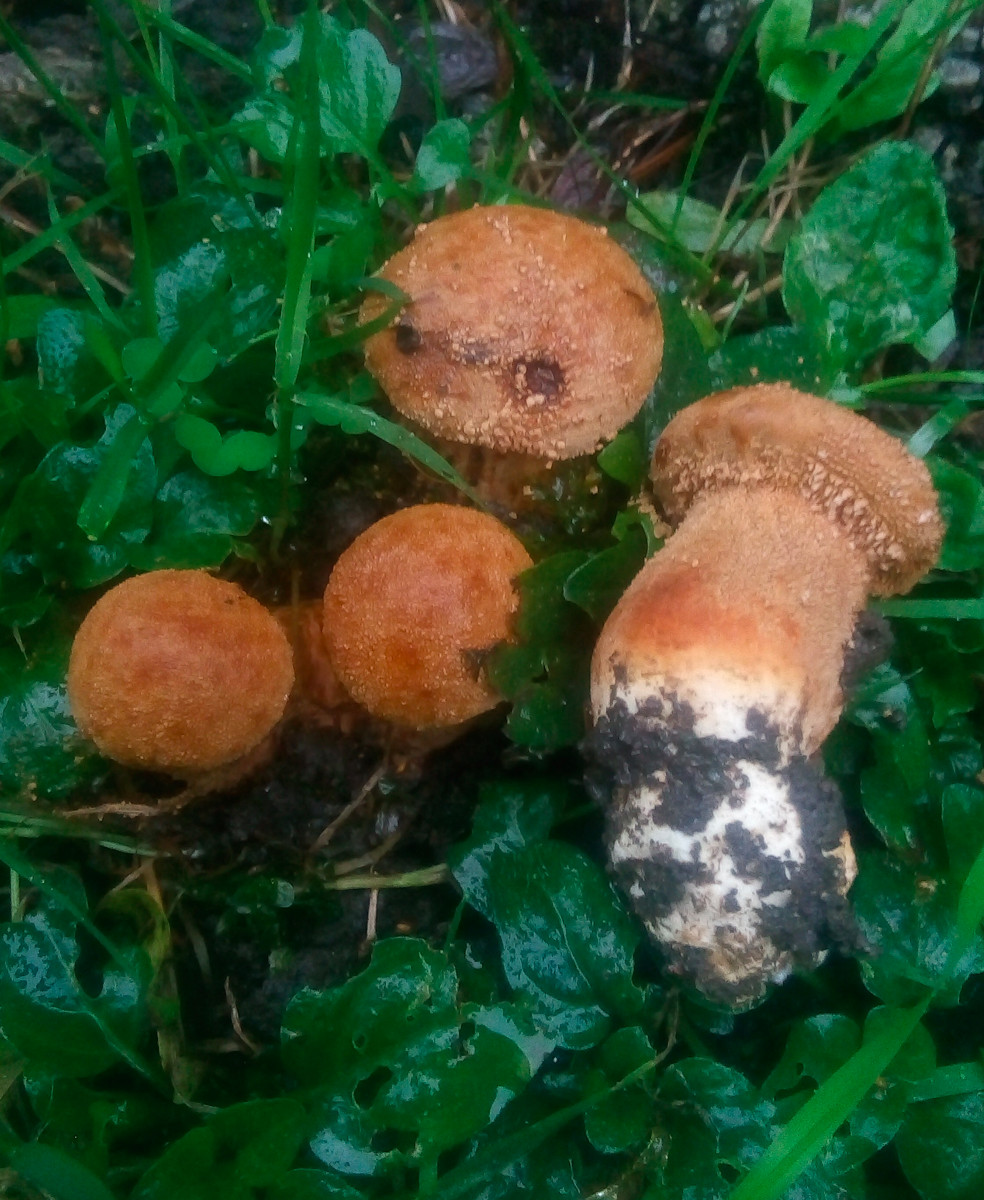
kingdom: Fungi
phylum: Basidiomycota
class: Agaricomycetes
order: Agaricales
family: Tricholomataceae
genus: Phaeolepiota
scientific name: Phaeolepiota aurea
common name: gyldenhat
